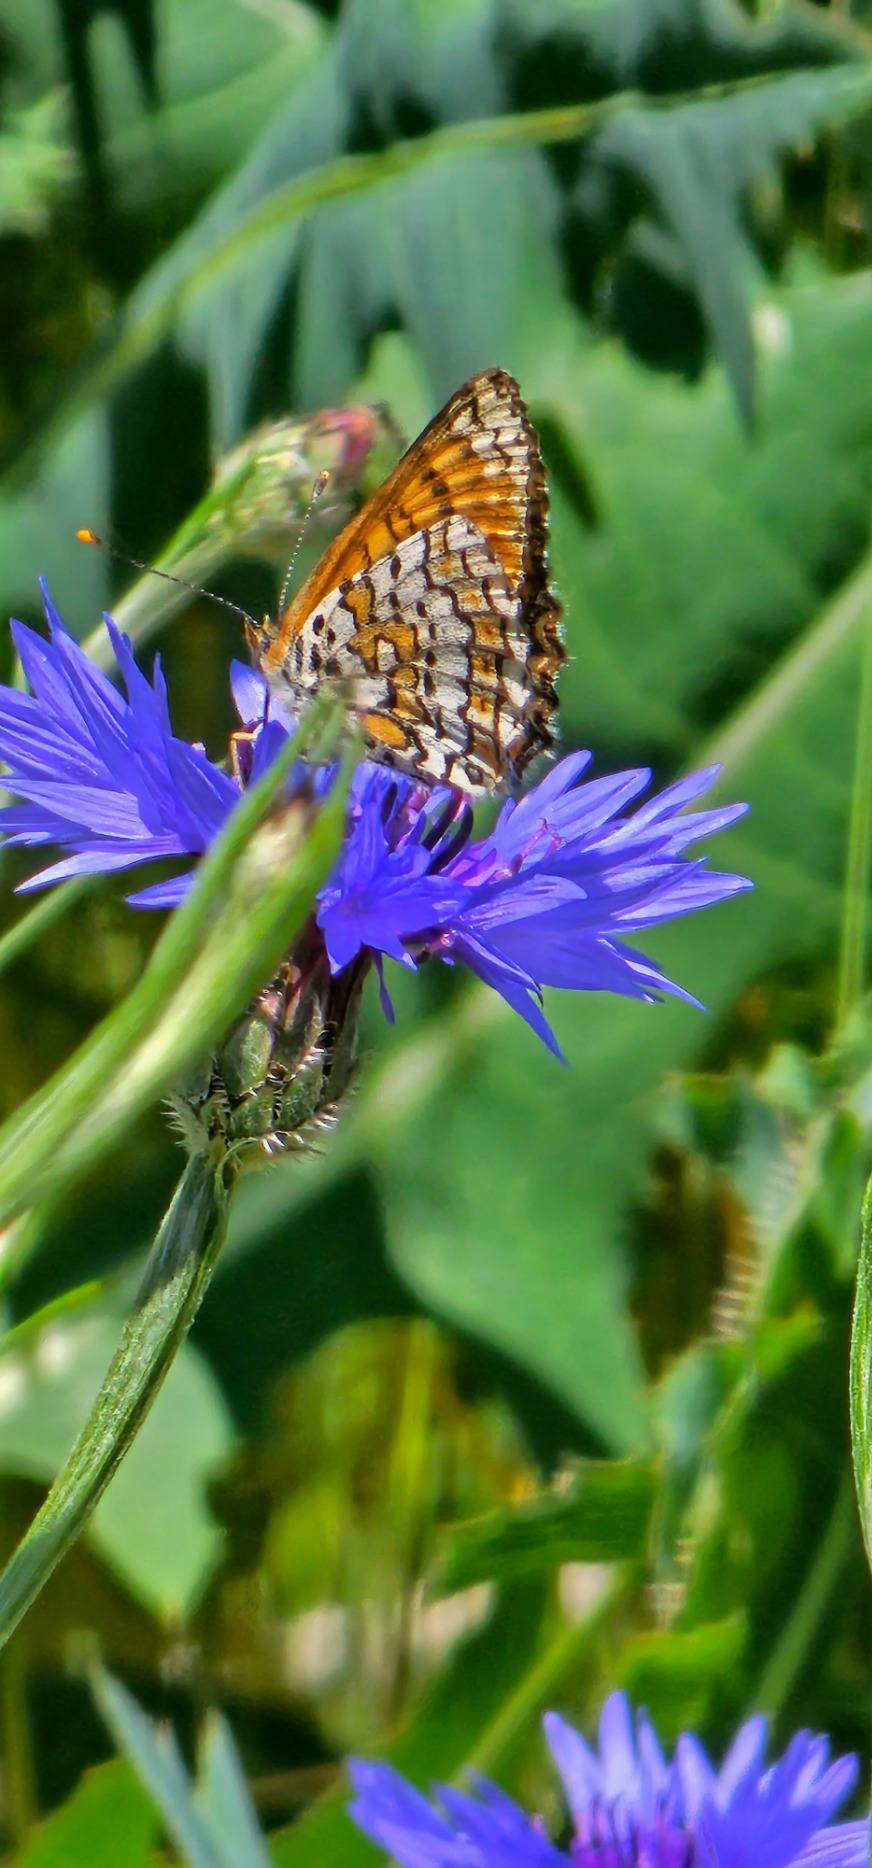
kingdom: Animalia
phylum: Arthropoda
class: Insecta
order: Lepidoptera
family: Nymphalidae
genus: Melitaea
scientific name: Melitaea cinxia
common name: Okkergul pletvinge
